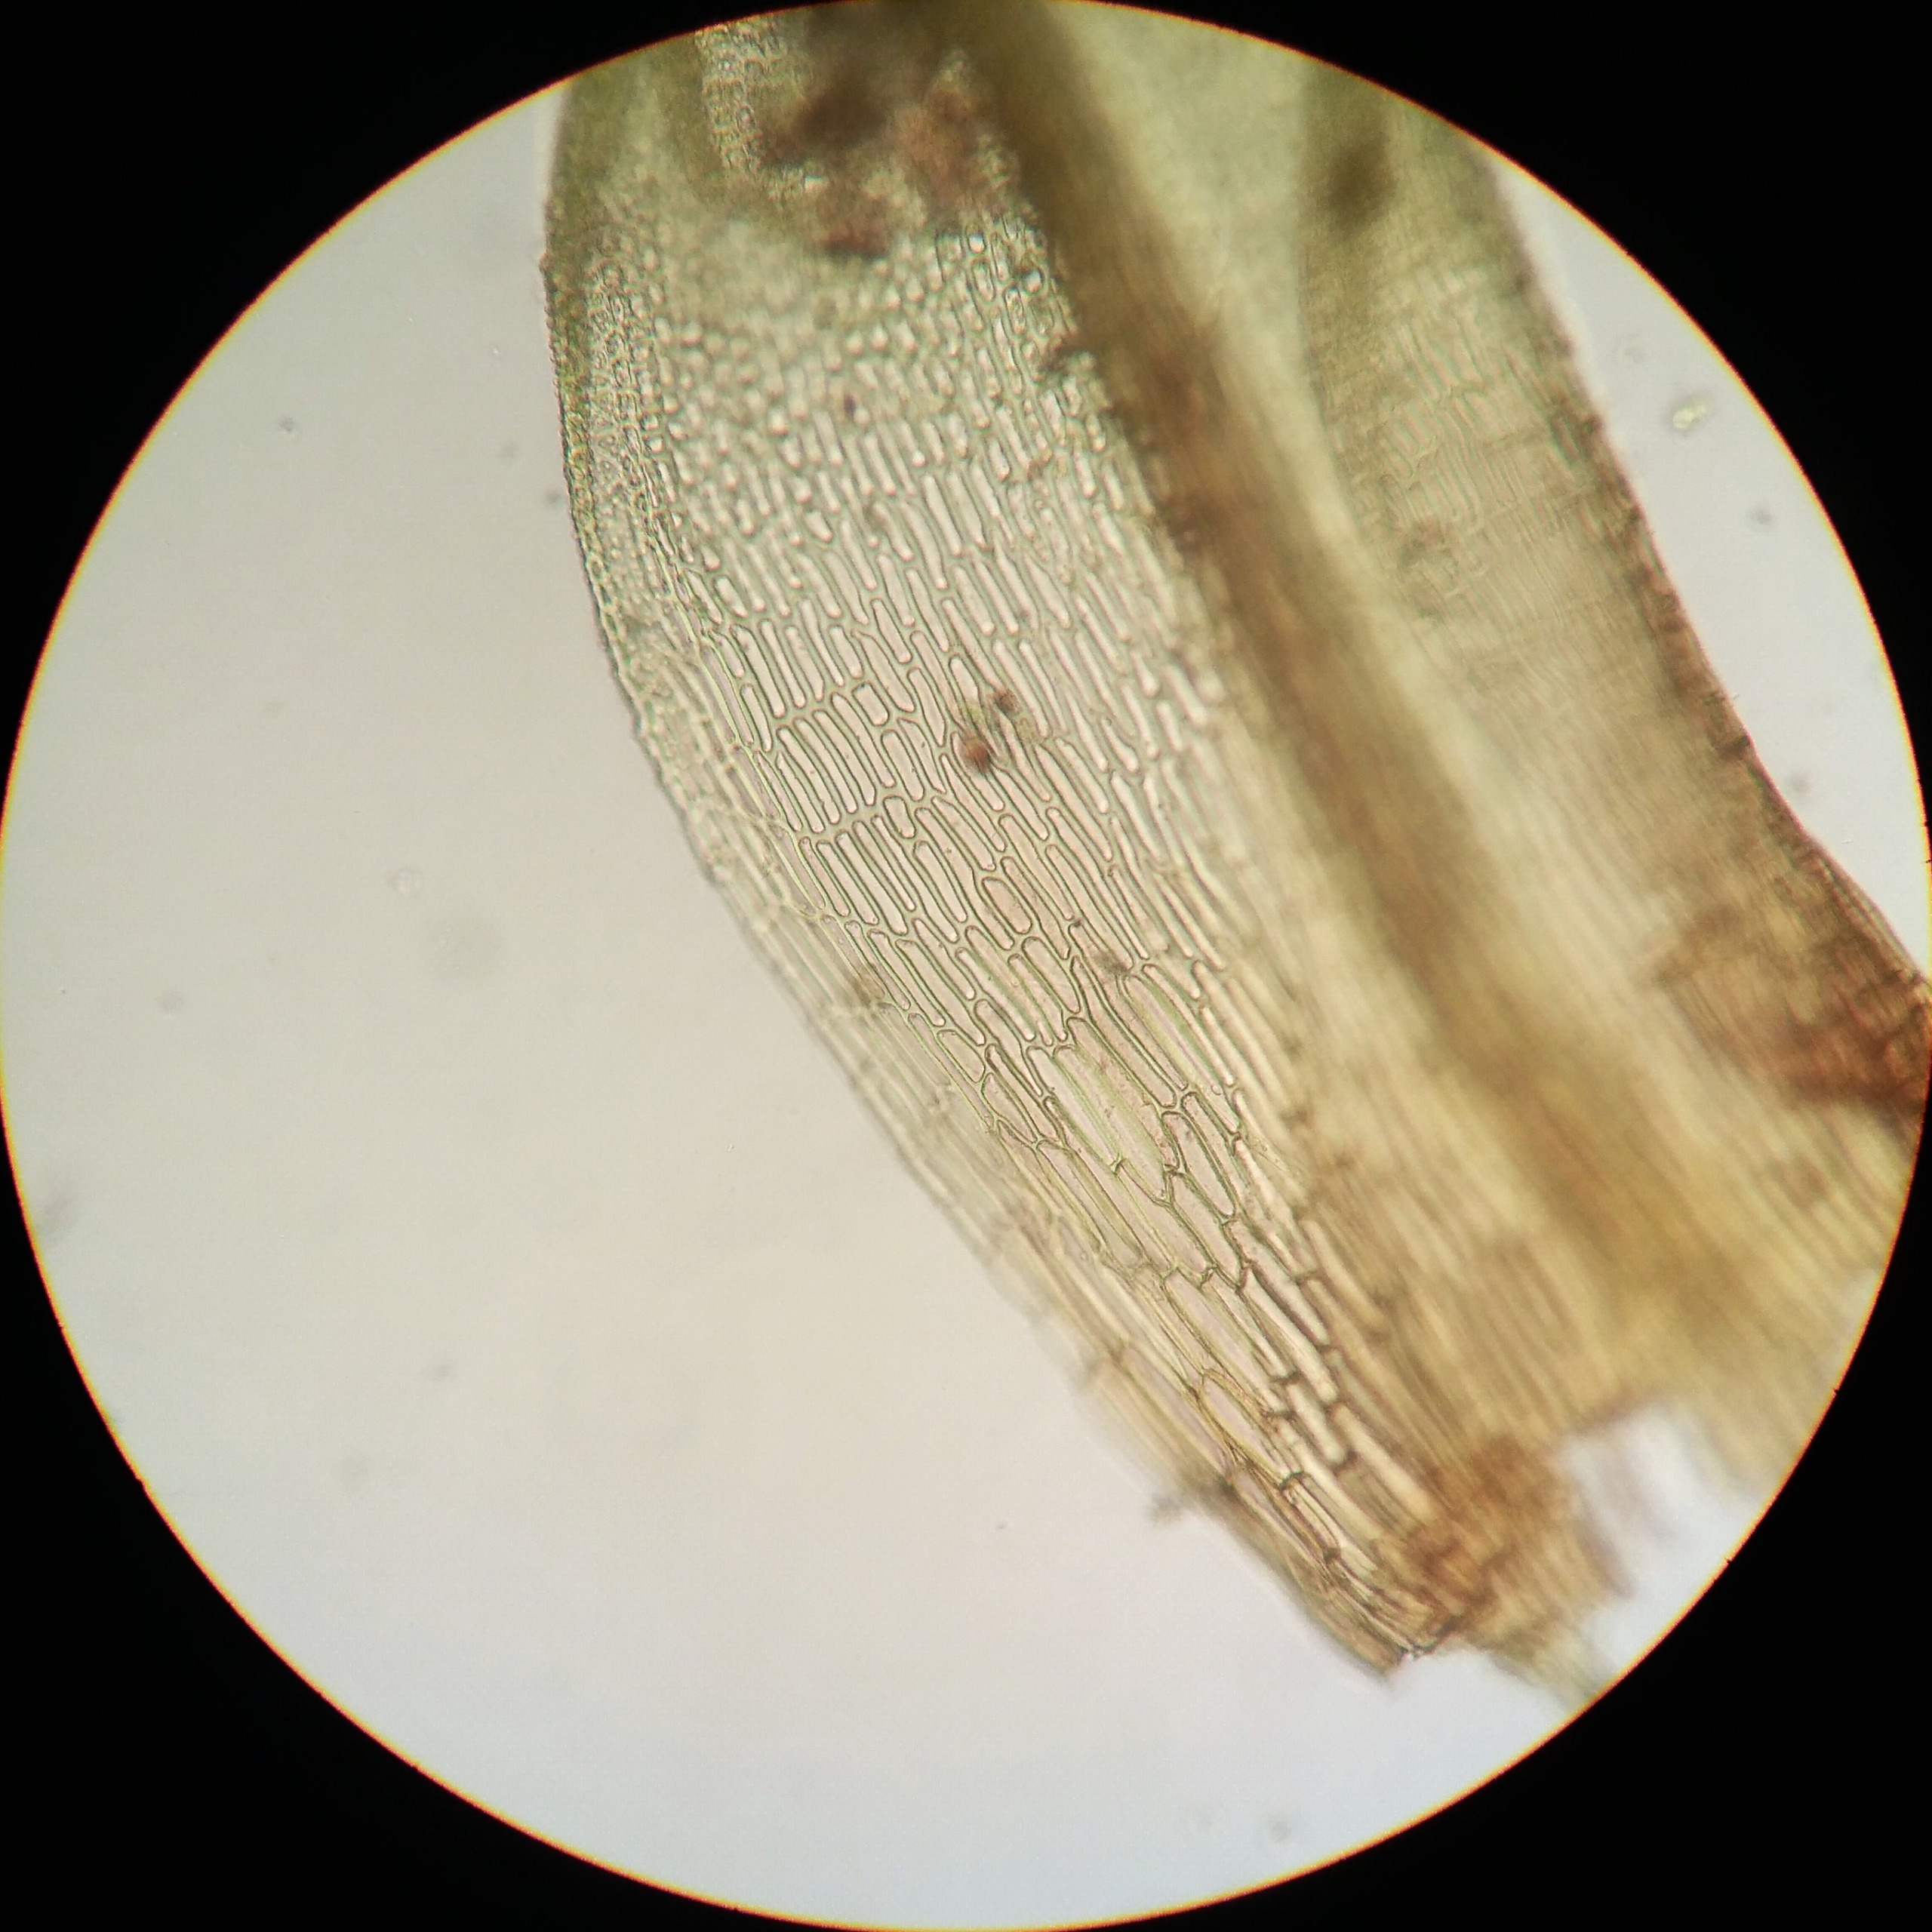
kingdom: Plantae
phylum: Bryophyta
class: Bryopsida
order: Pottiales
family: Pottiaceae
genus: Streblotrichum
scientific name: Streblotrichum commutatum
